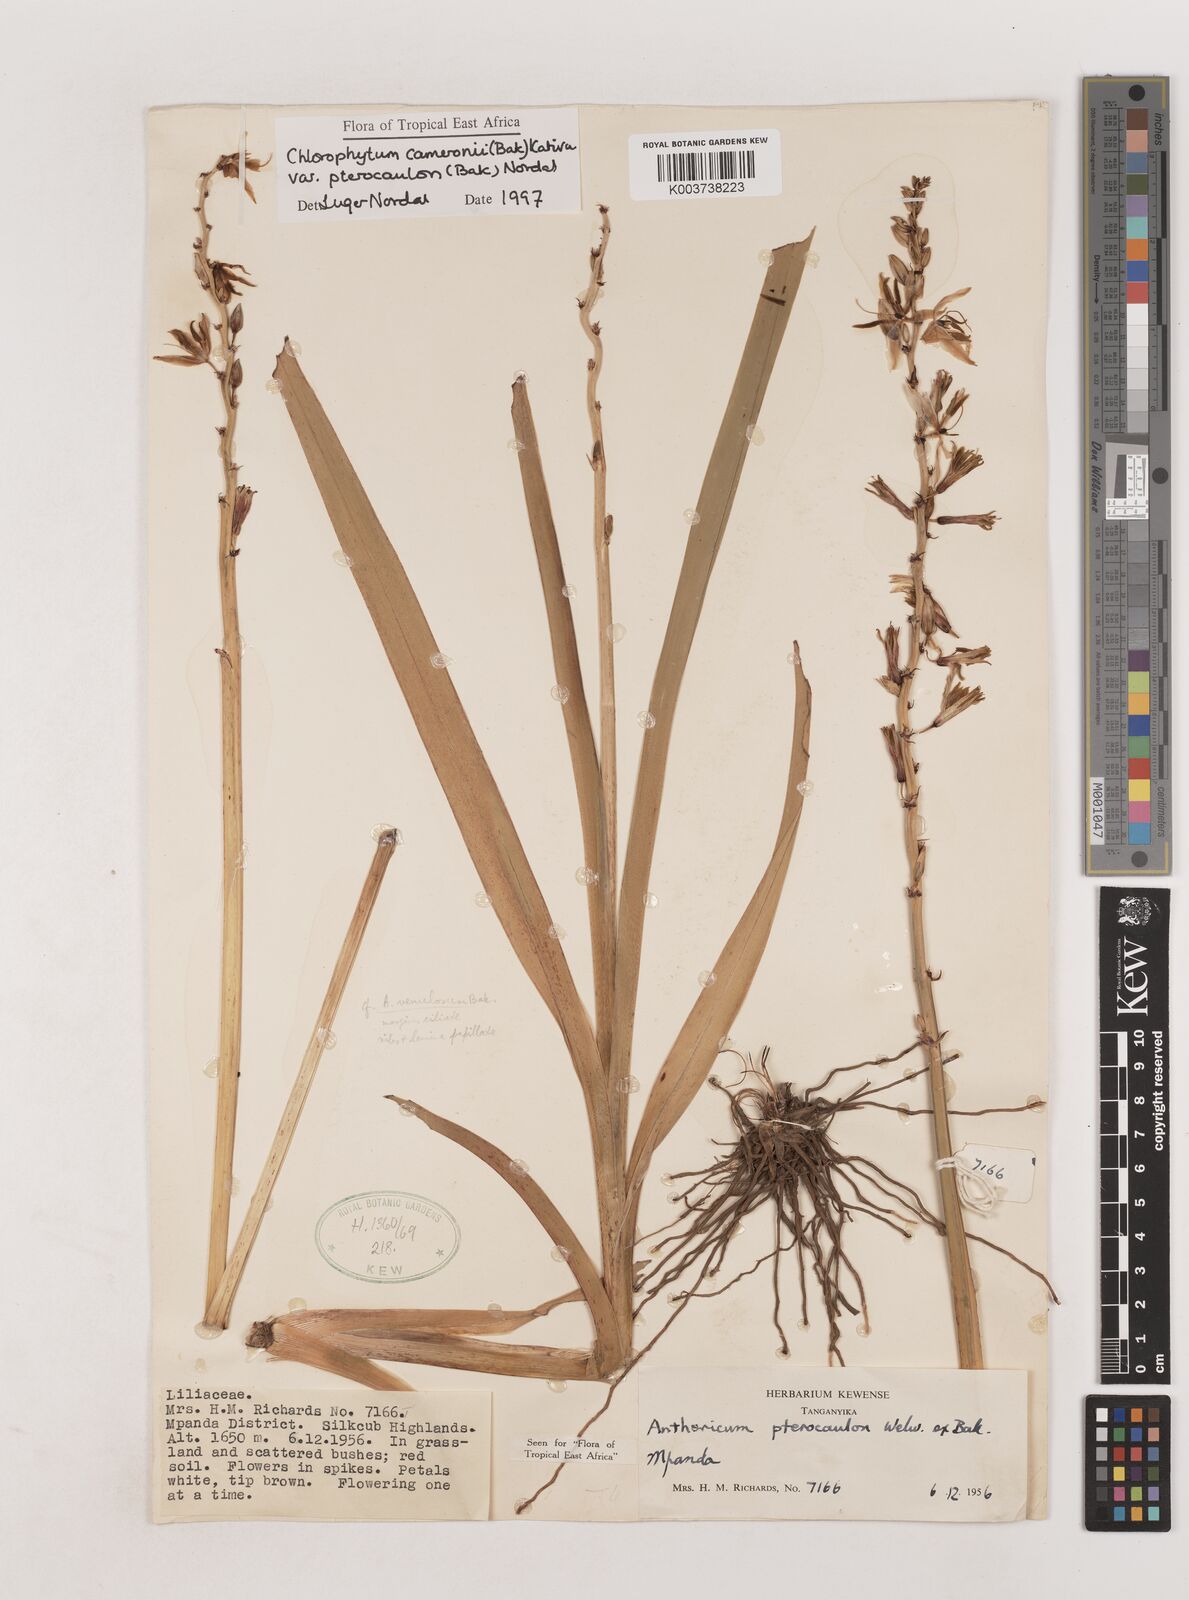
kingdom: Plantae
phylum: Tracheophyta
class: Liliopsida
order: Asparagales
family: Asparagaceae
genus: Chlorophytum
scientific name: Chlorophytum cameronii
